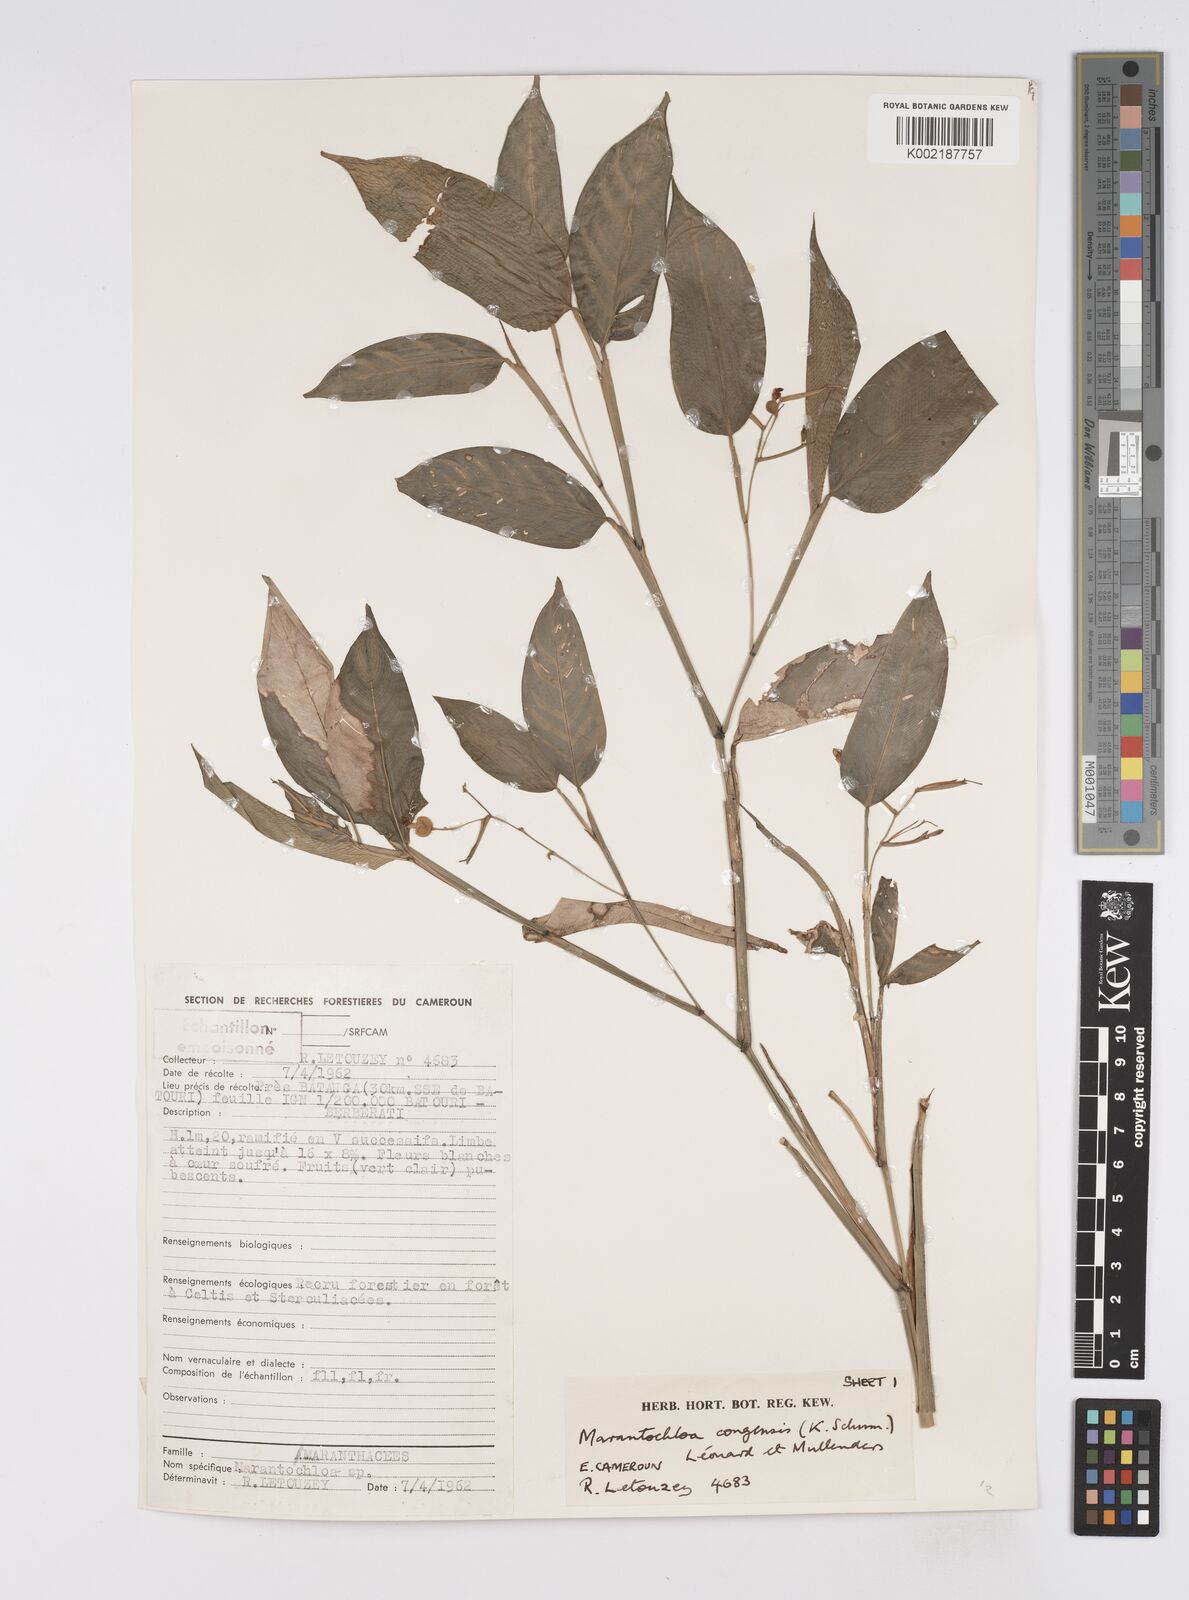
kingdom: Plantae
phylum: Tracheophyta
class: Liliopsida
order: Zingiberales
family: Marantaceae
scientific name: Marantaceae
